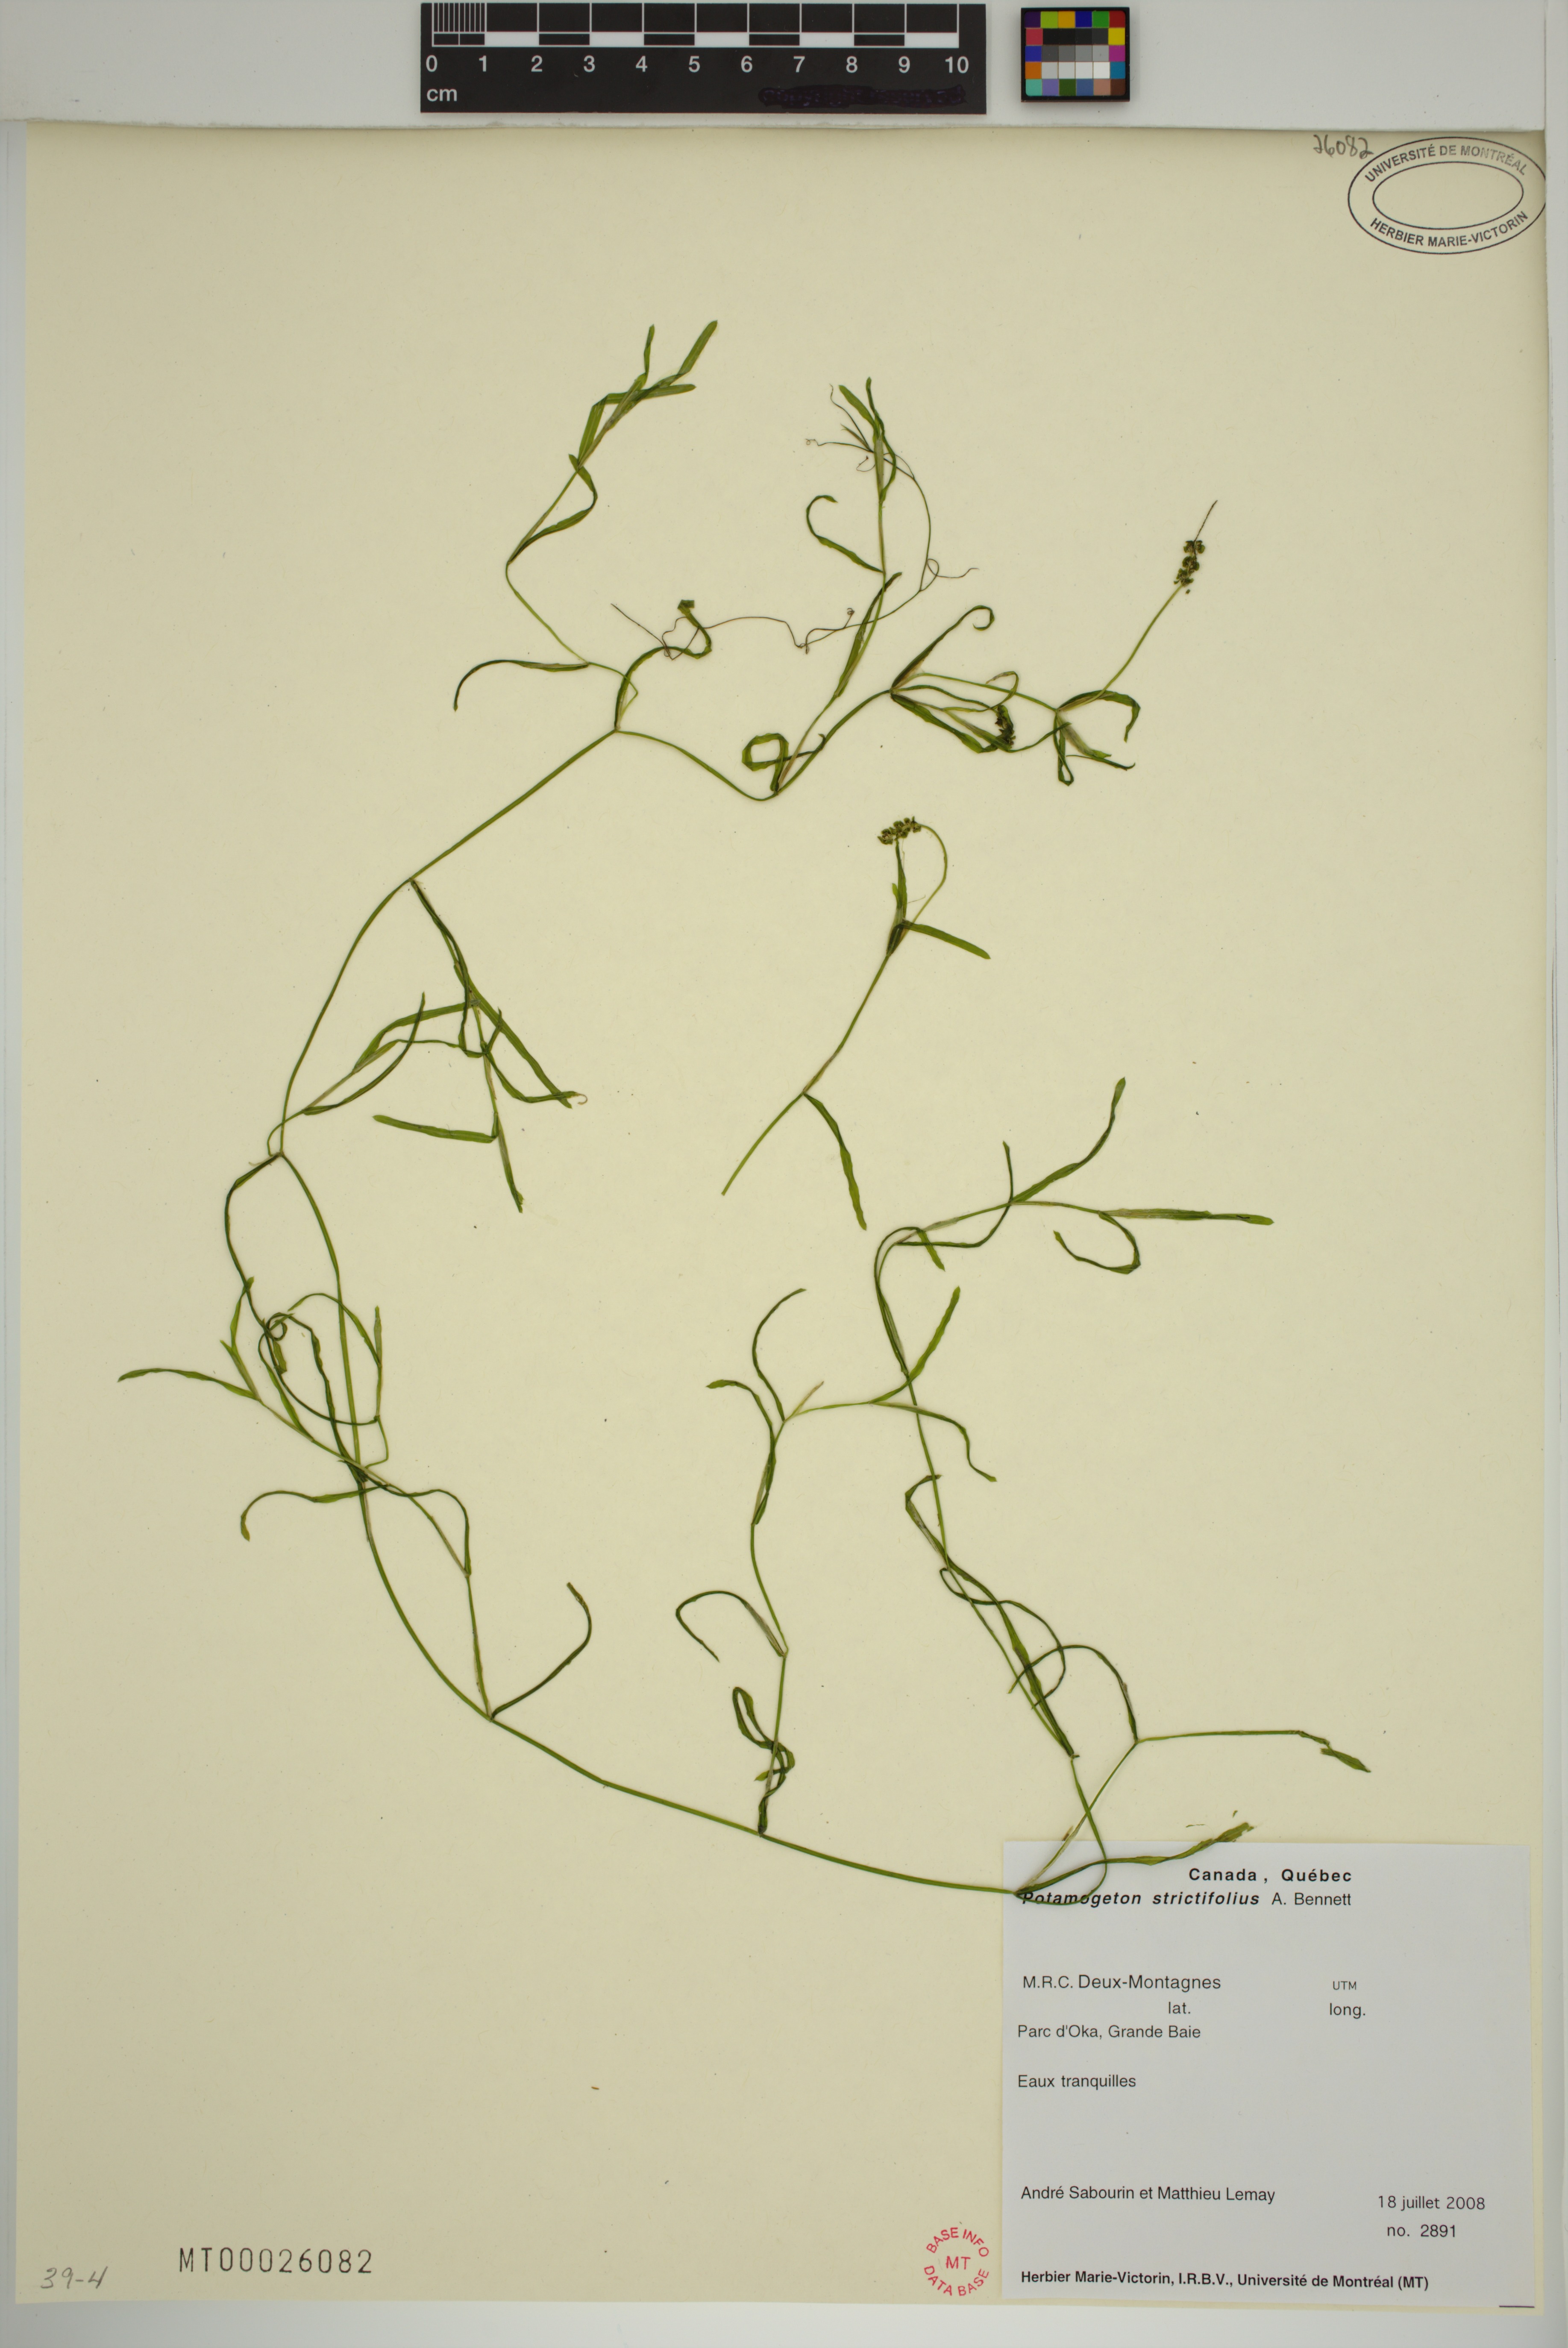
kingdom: Plantae
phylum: Tracheophyta
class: Liliopsida
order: Alismatales
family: Potamogetonaceae
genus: Potamogeton
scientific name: Potamogeton strictifolius
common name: Linear-leaved pondweed
